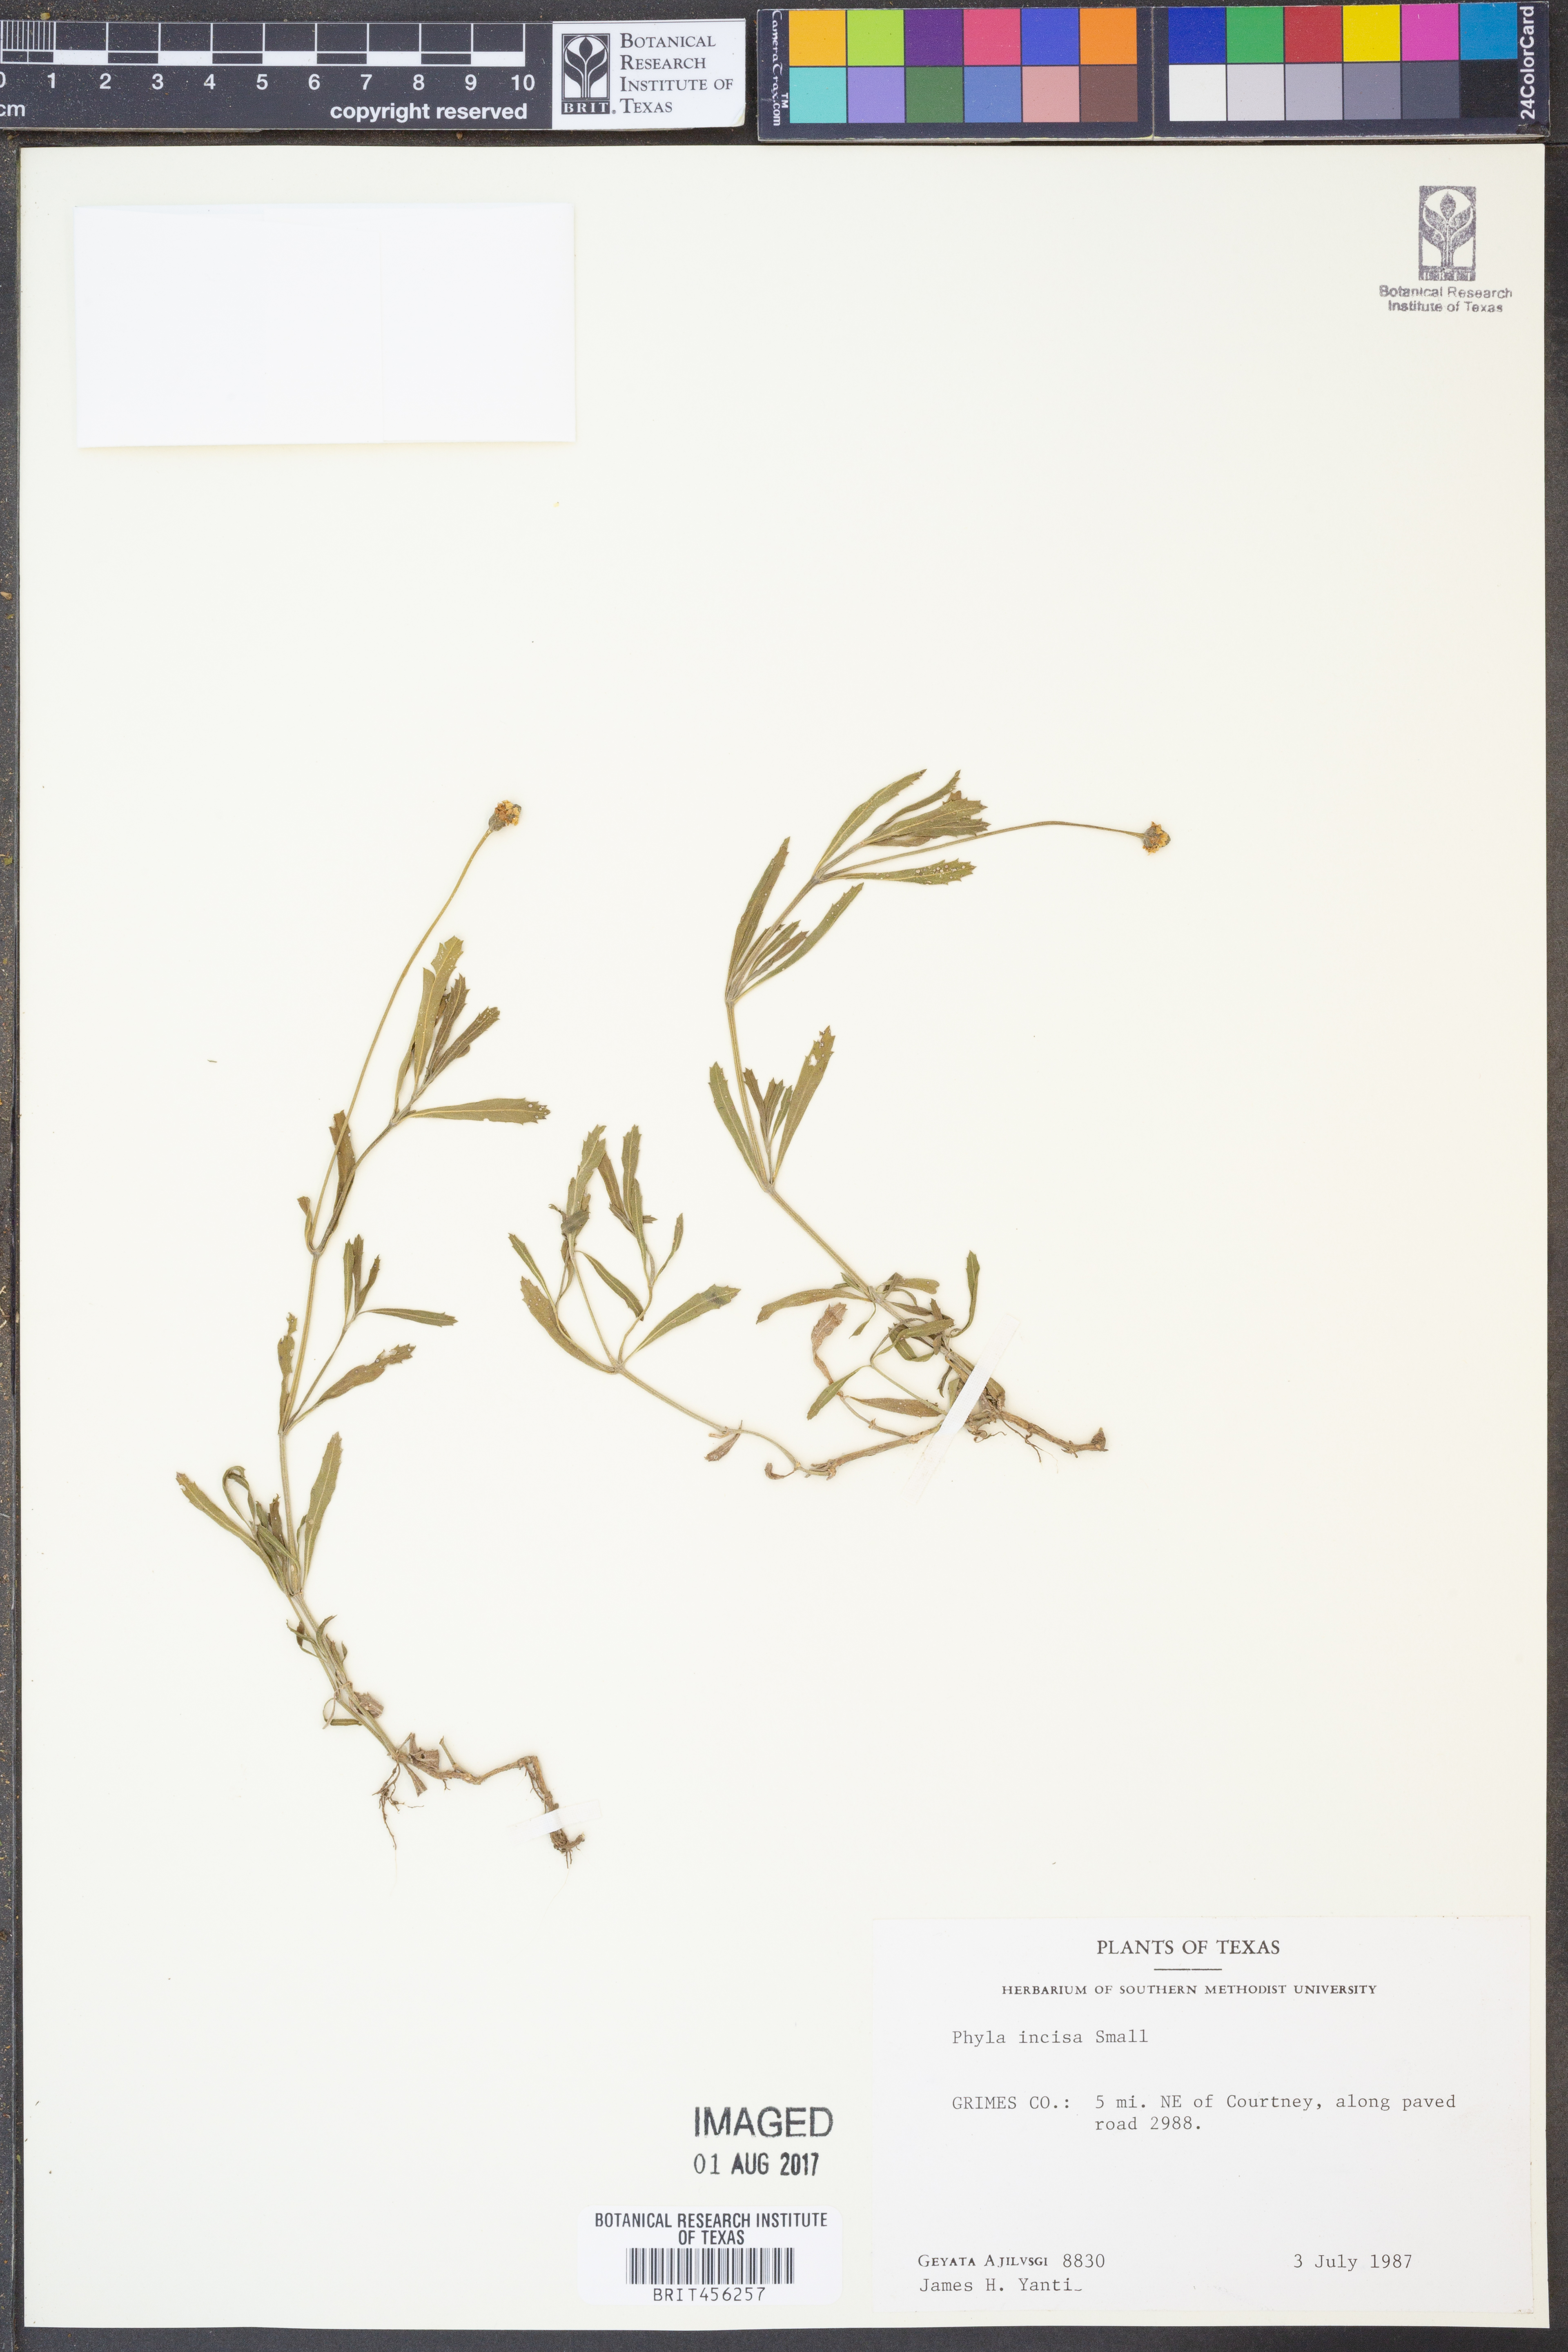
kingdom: Plantae
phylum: Tracheophyta
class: Magnoliopsida
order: Lamiales
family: Verbenaceae
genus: Phyla
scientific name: Phyla nodiflora
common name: Frogfruit
